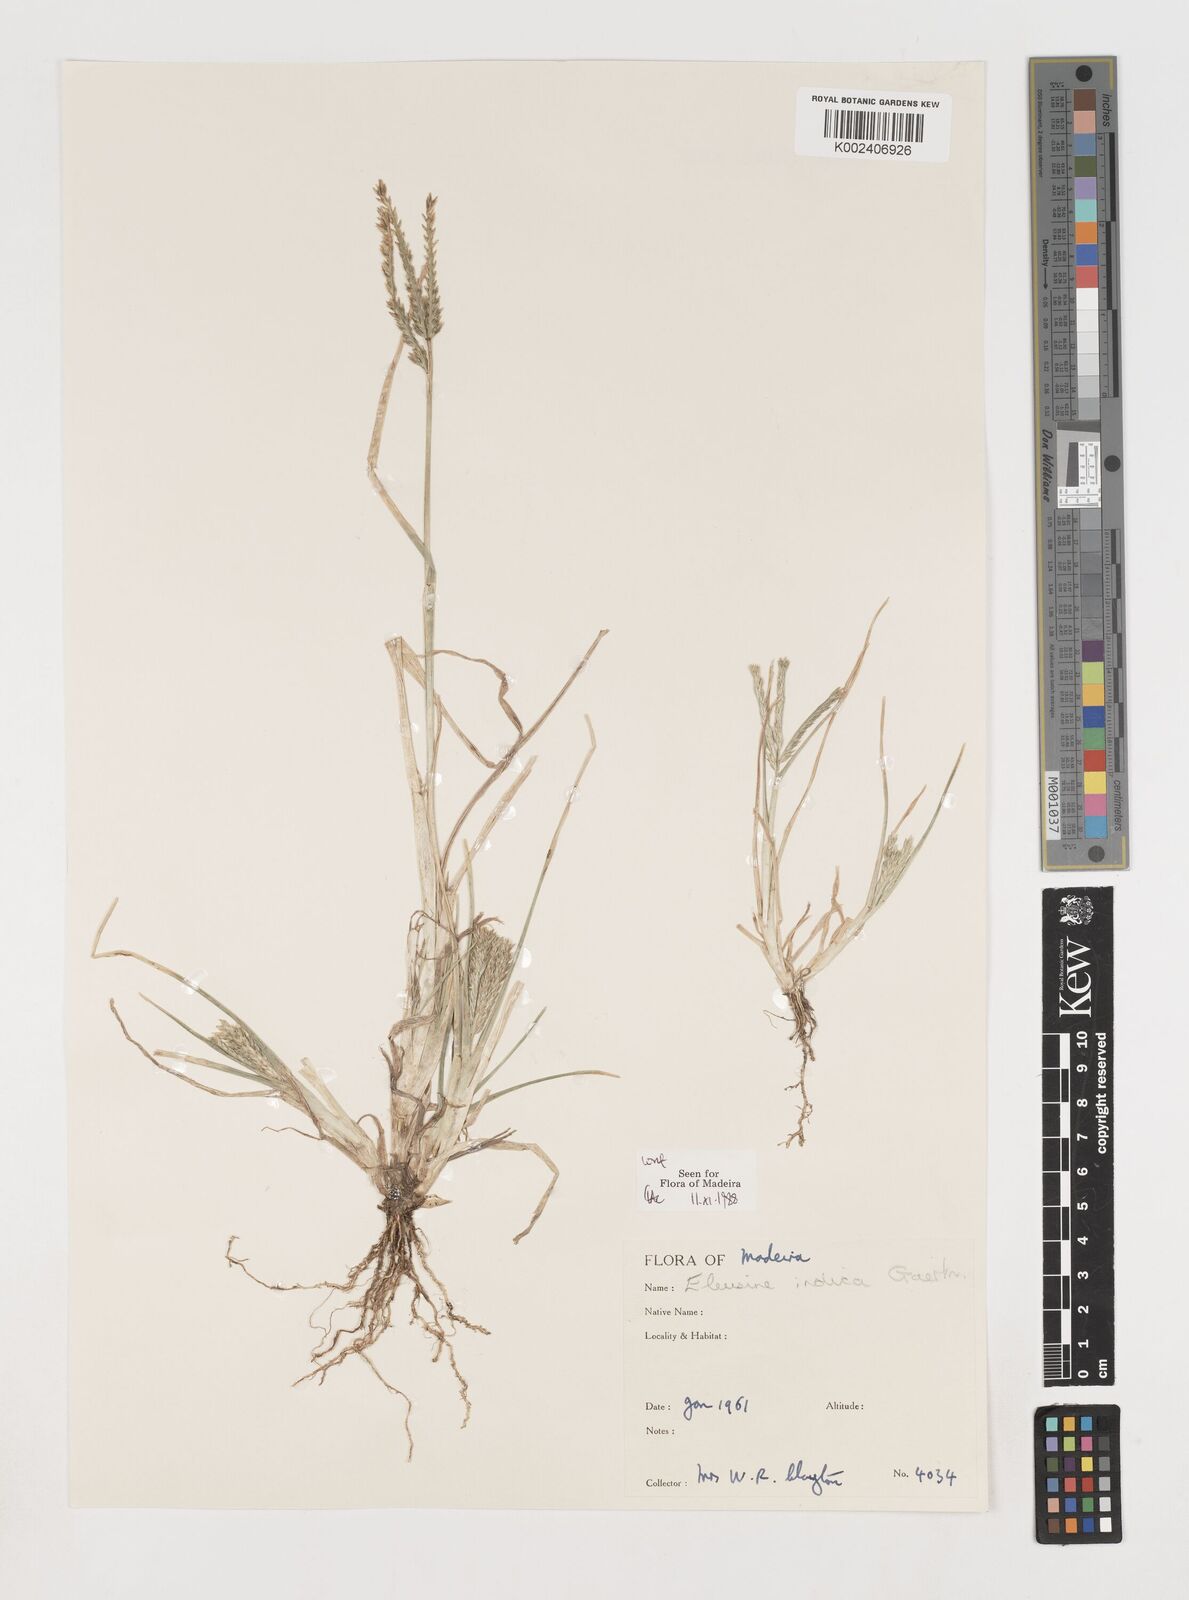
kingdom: Plantae
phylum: Tracheophyta
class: Liliopsida
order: Poales
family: Poaceae
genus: Eleusine
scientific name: Eleusine indica
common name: Yard-grass
